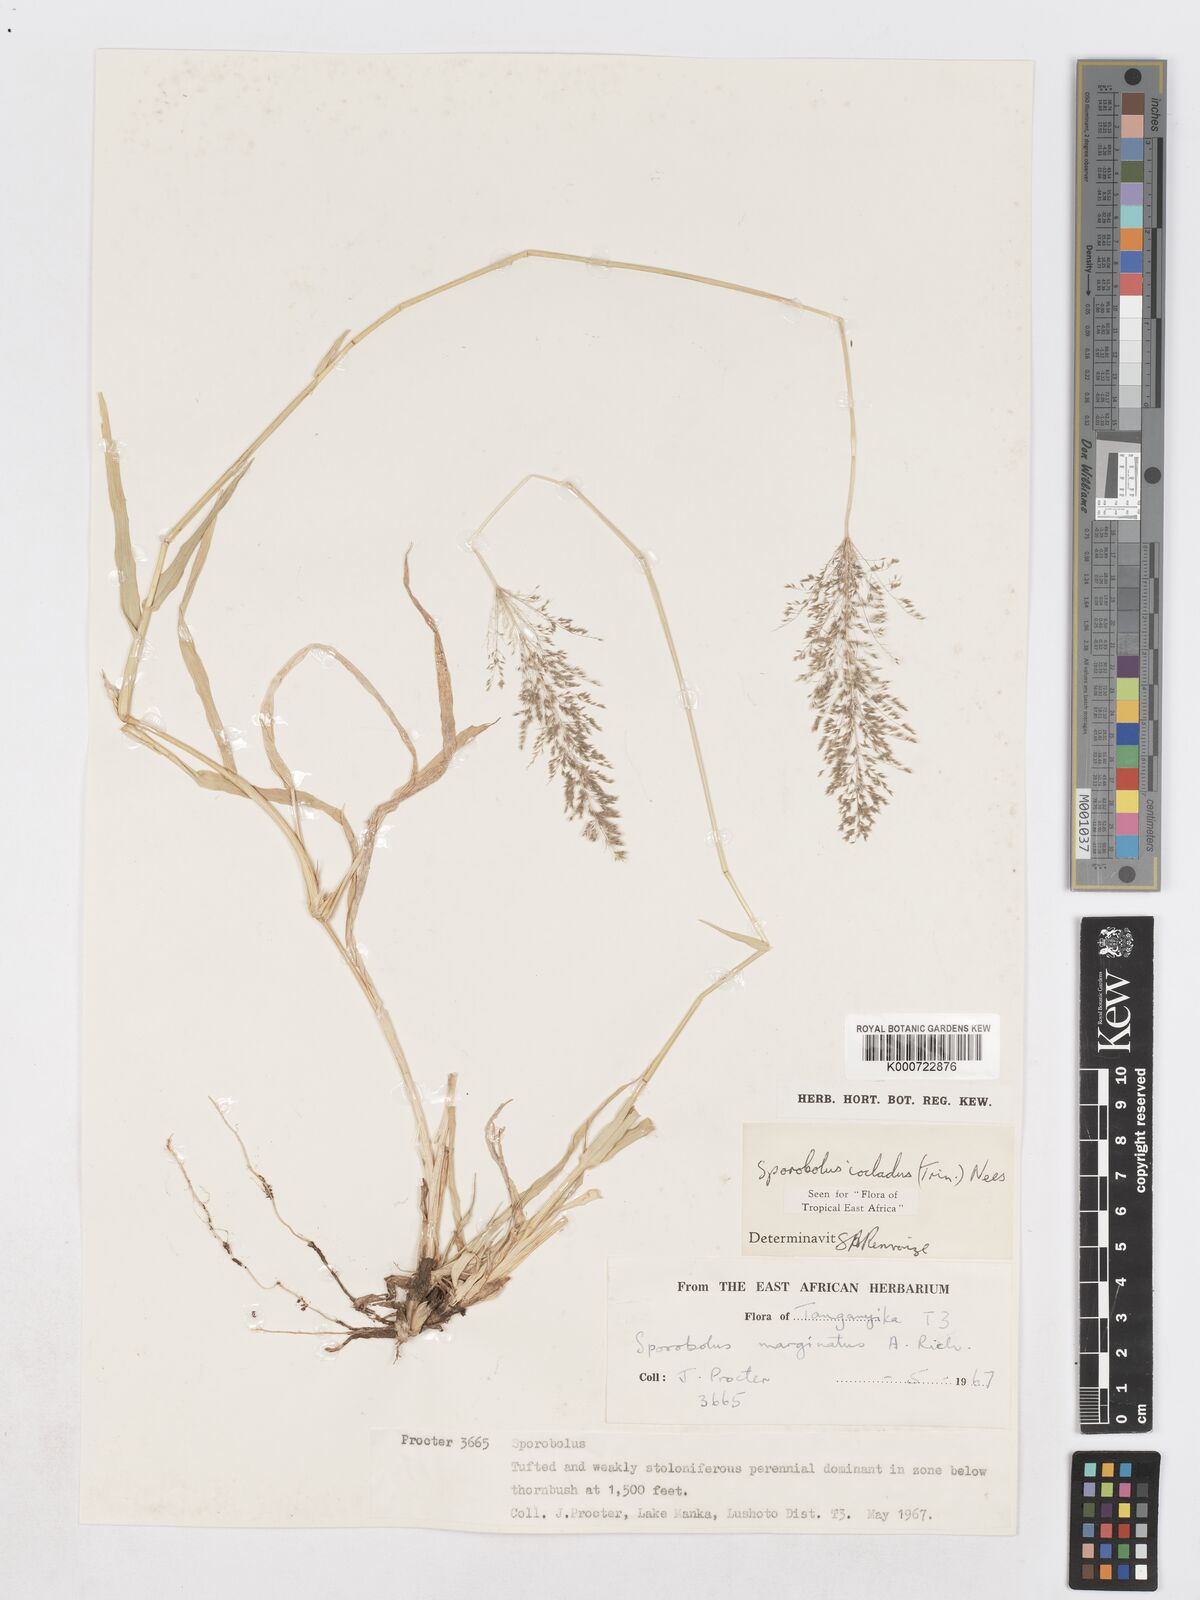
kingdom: Plantae
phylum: Tracheophyta
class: Liliopsida
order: Poales
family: Poaceae
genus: Sporobolus
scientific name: Sporobolus ioclados
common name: Pan dropseed
